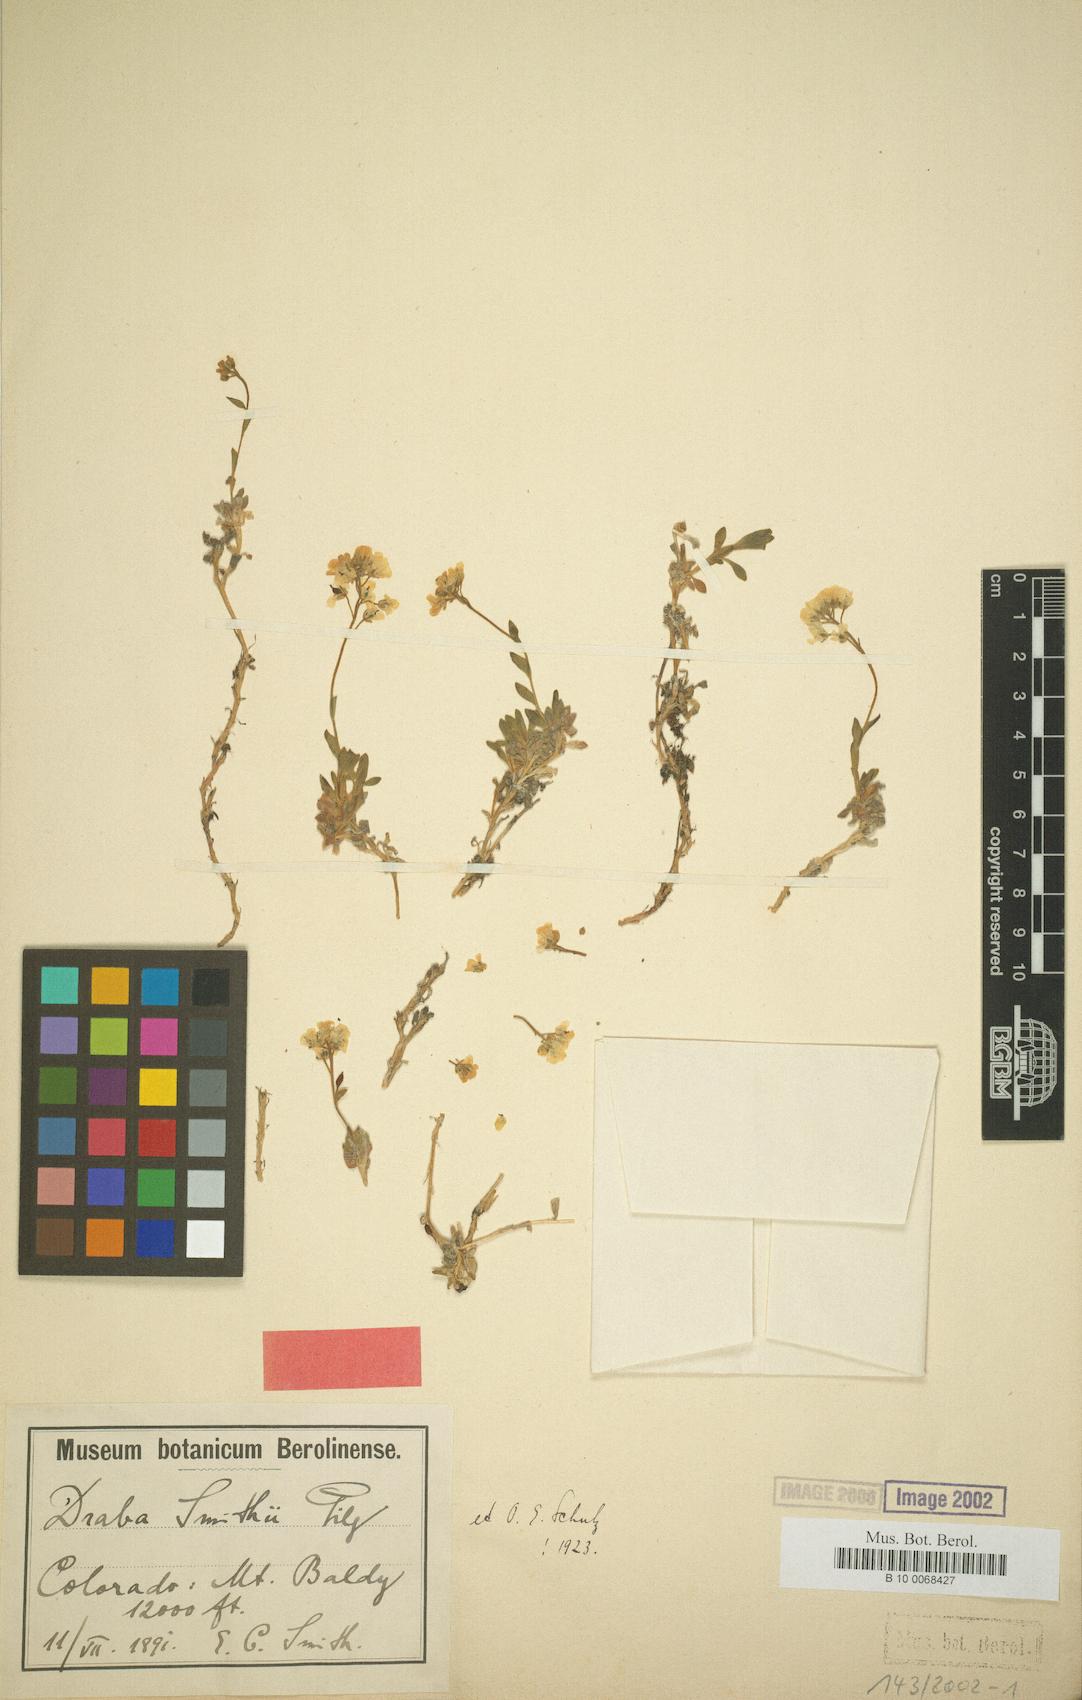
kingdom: Plantae
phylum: Tracheophyta
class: Magnoliopsida
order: Brassicales
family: Brassicaceae
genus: Draba
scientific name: Draba smithii
